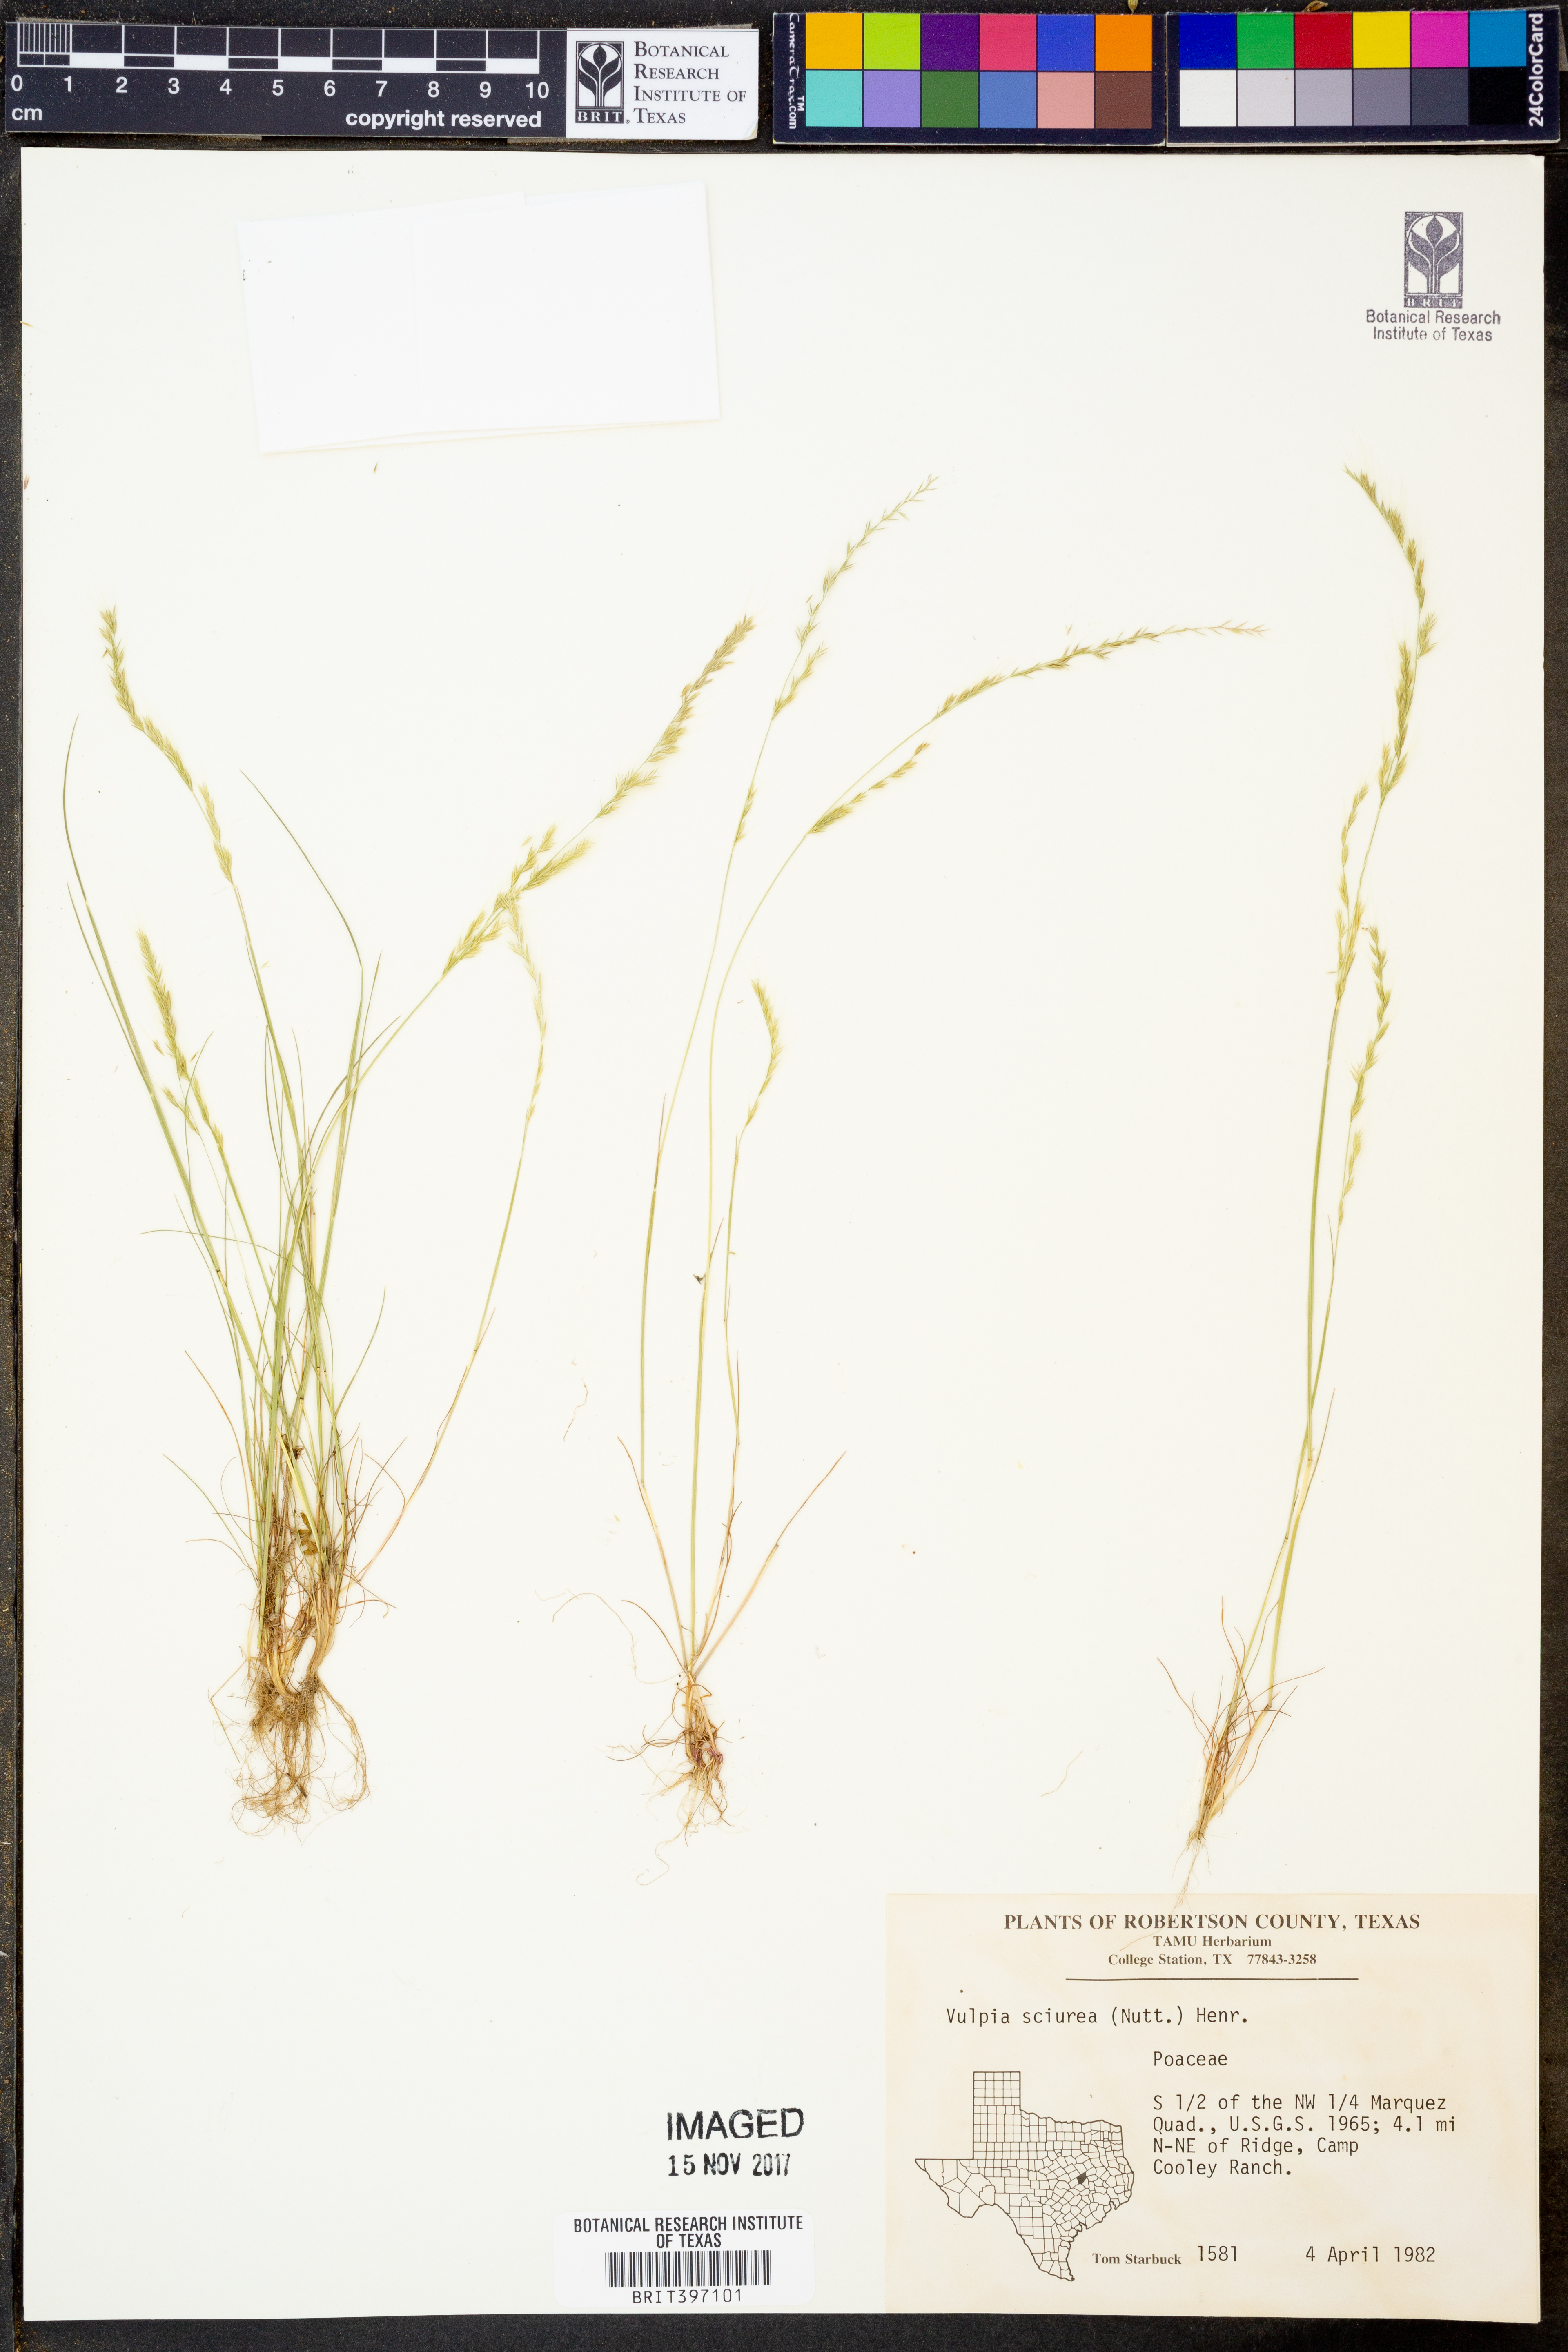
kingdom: Plantae
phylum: Tracheophyta
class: Liliopsida
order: Poales
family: Poaceae
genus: Festuca
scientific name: Festuca sciurea
